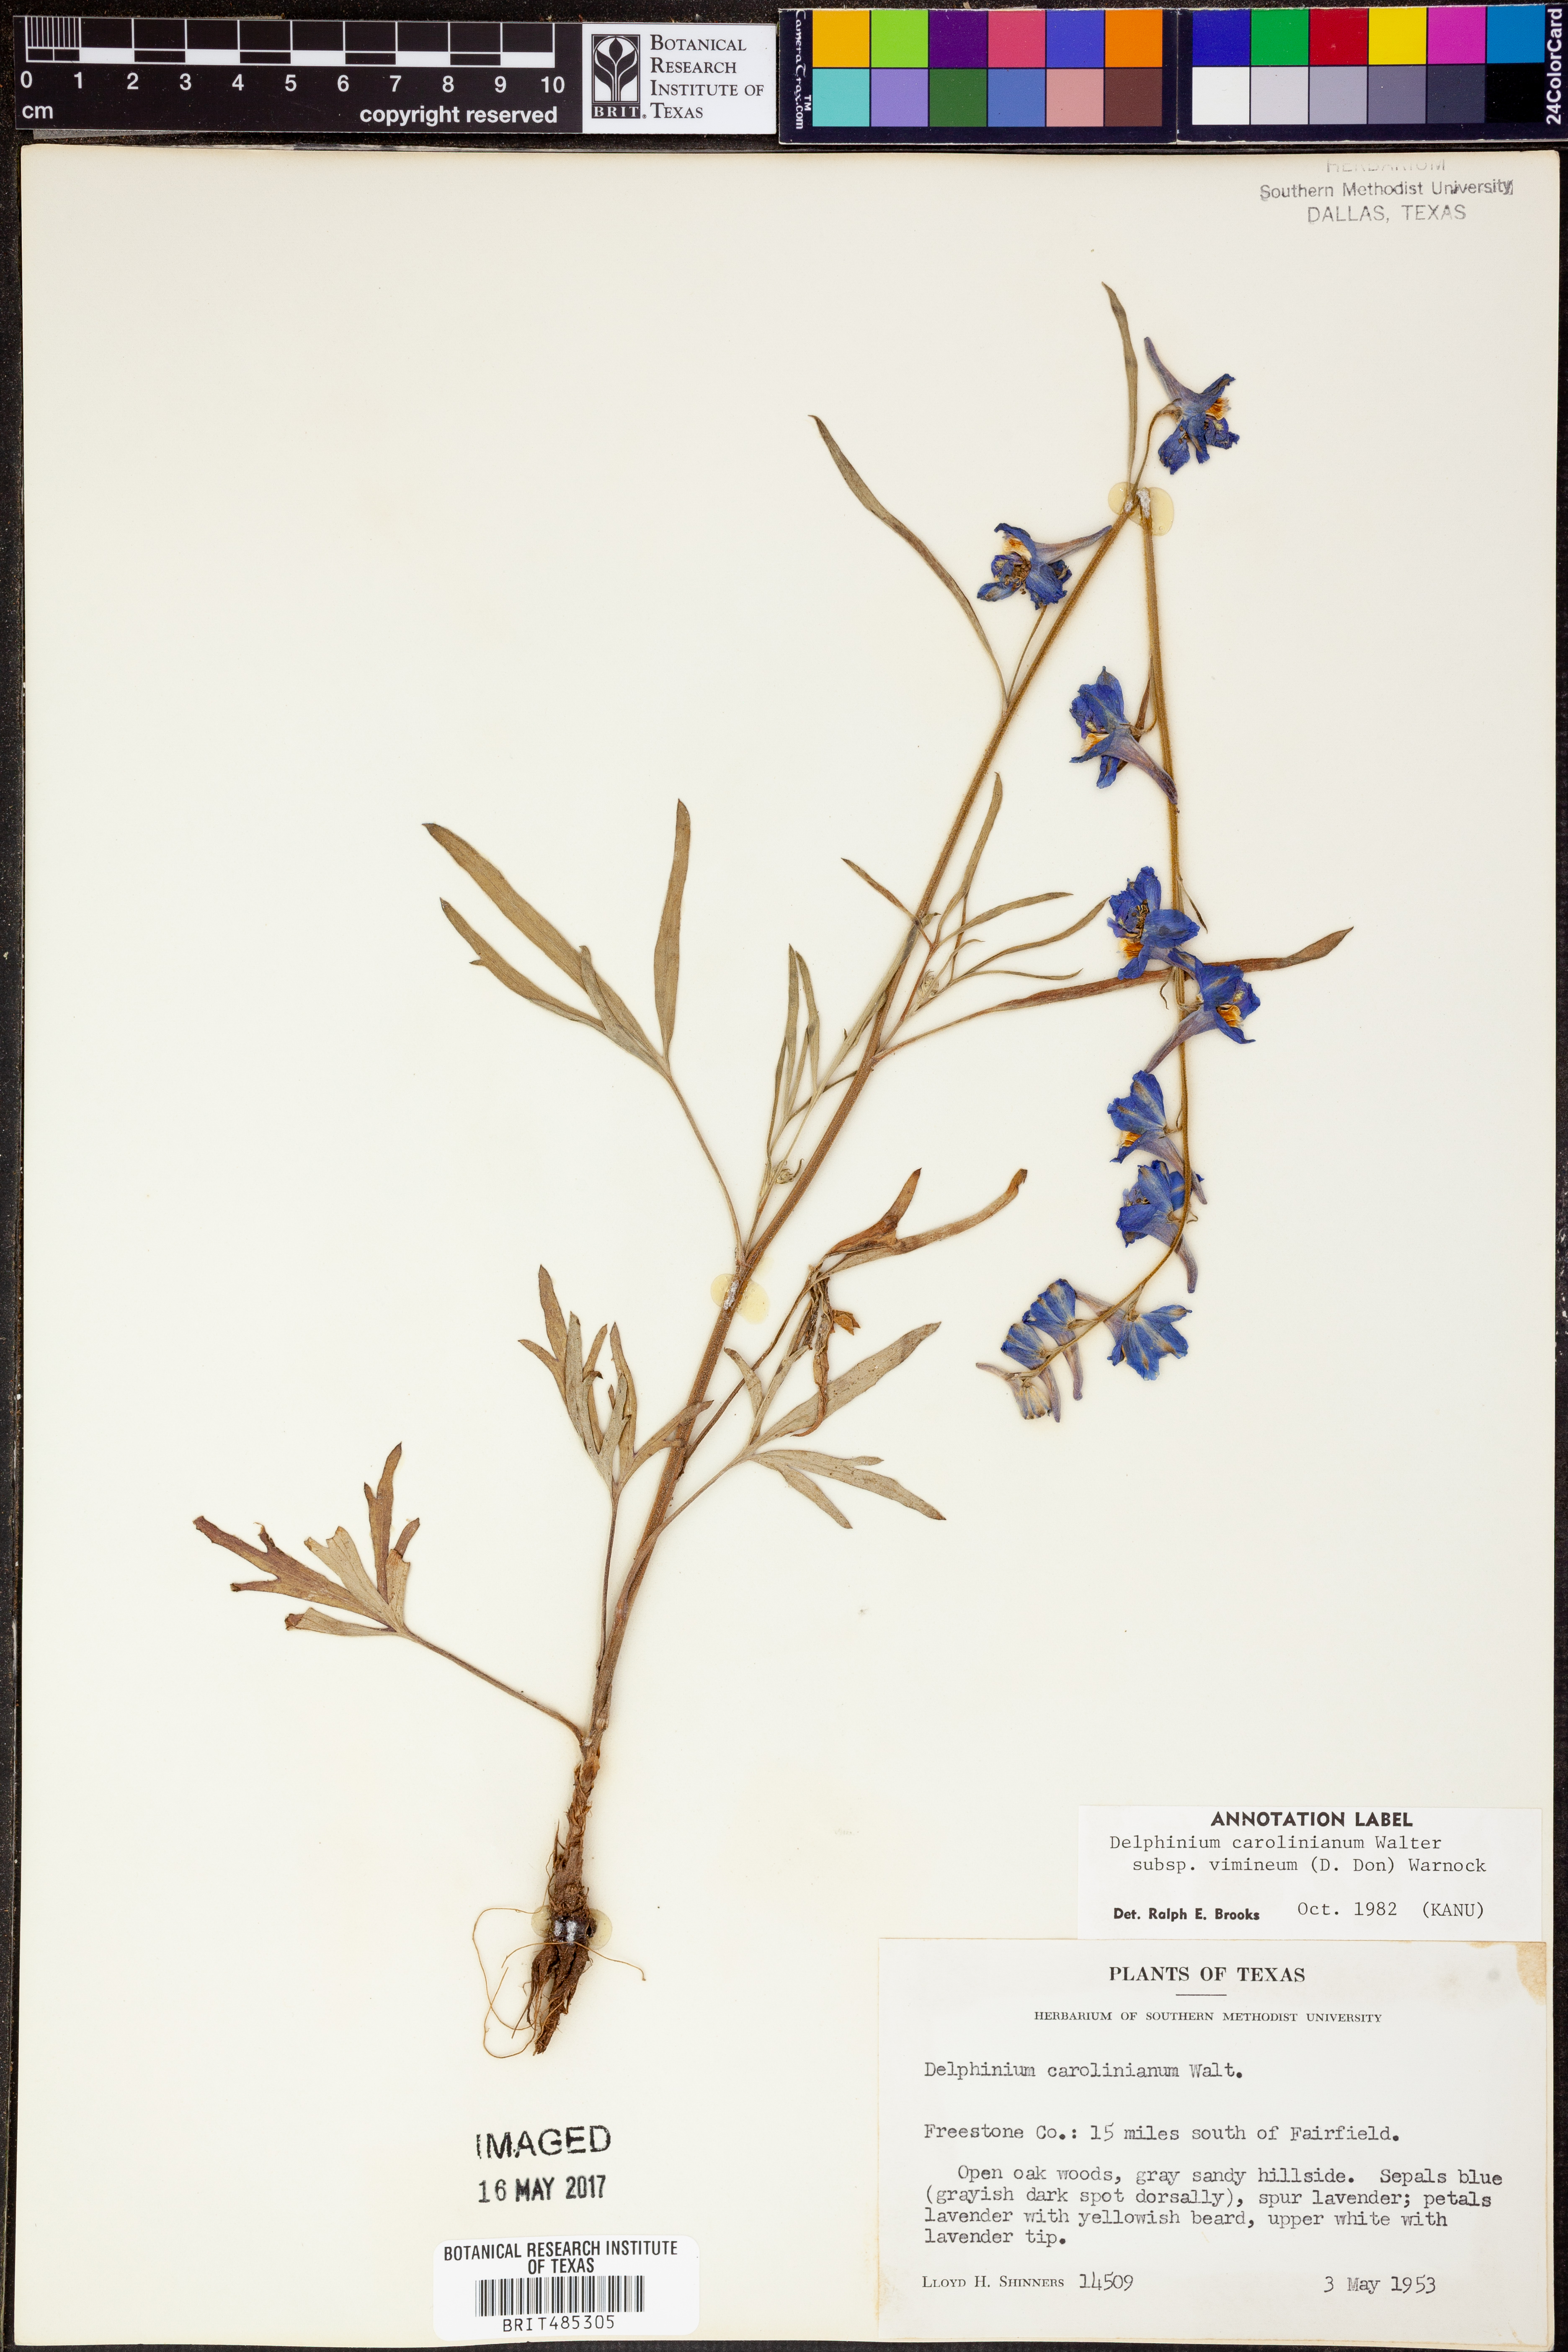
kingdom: Plantae
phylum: Tracheophyta
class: Magnoliopsida
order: Ranunculales
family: Ranunculaceae
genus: Delphinium
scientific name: Delphinium carolinianum
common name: Carolina larkspur
